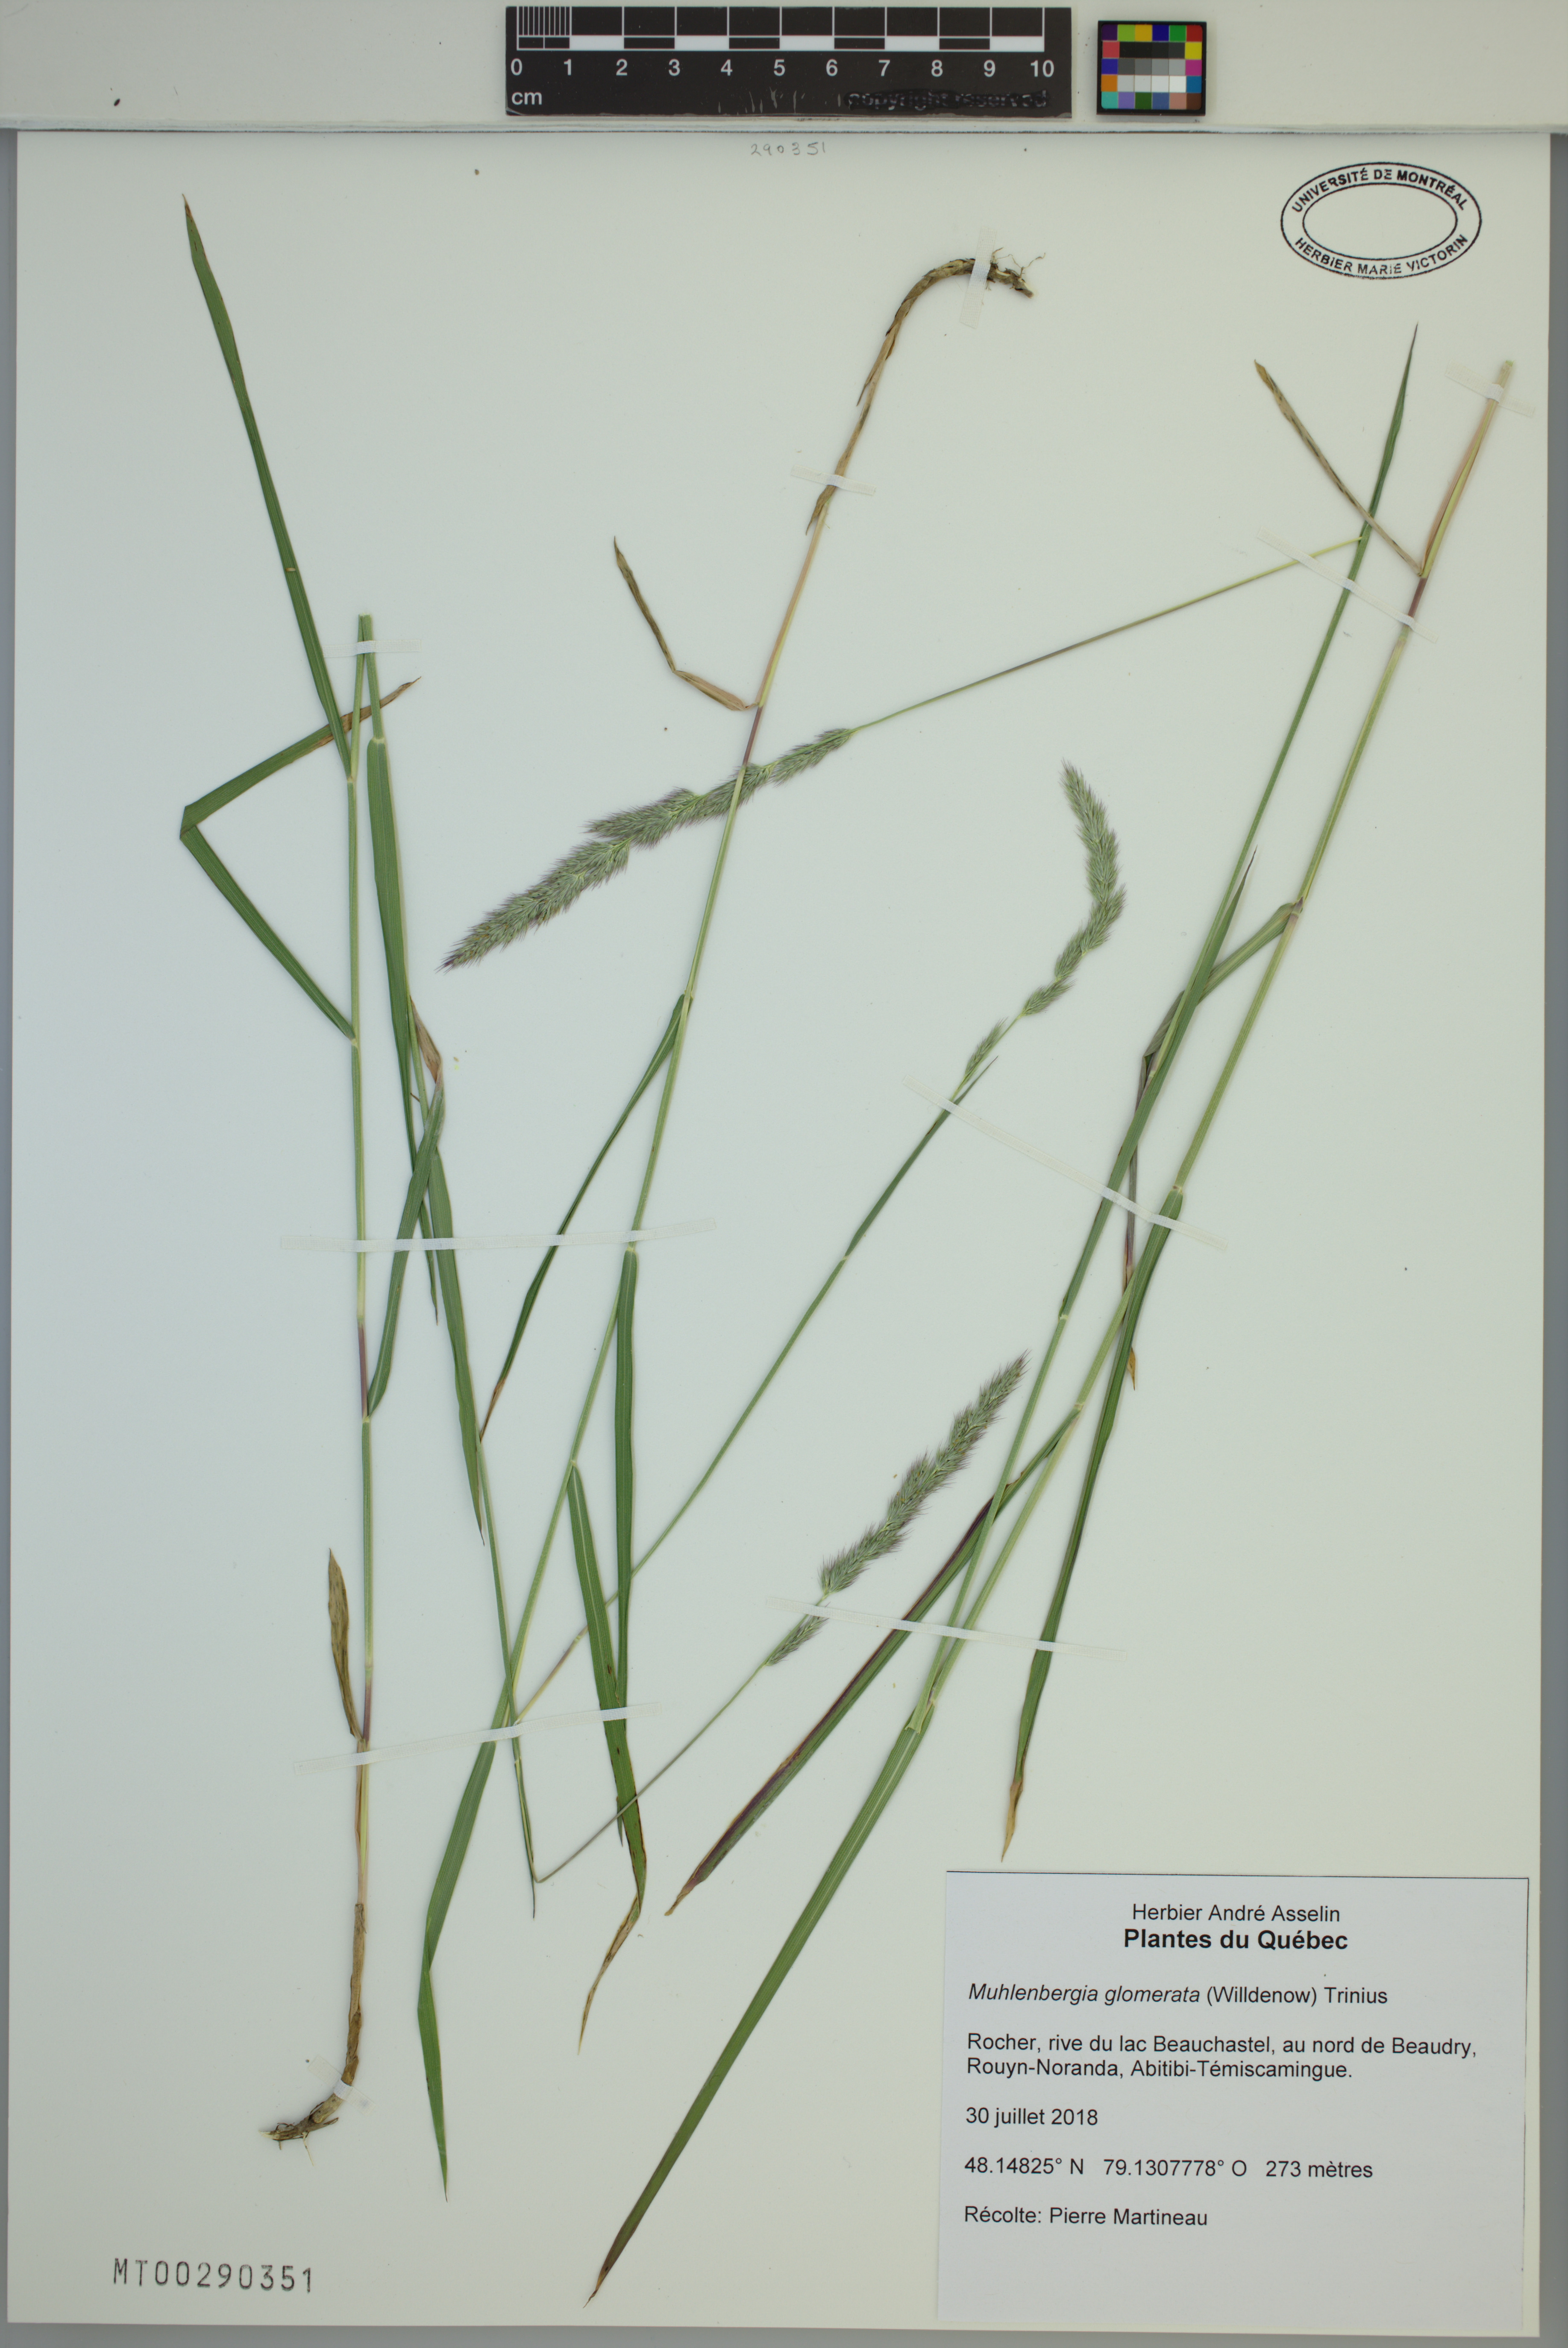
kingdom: Plantae
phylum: Tracheophyta
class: Liliopsida
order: Poales
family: Poaceae
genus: Muhlenbergia
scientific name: Muhlenbergia glomerata
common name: Bog muhly
